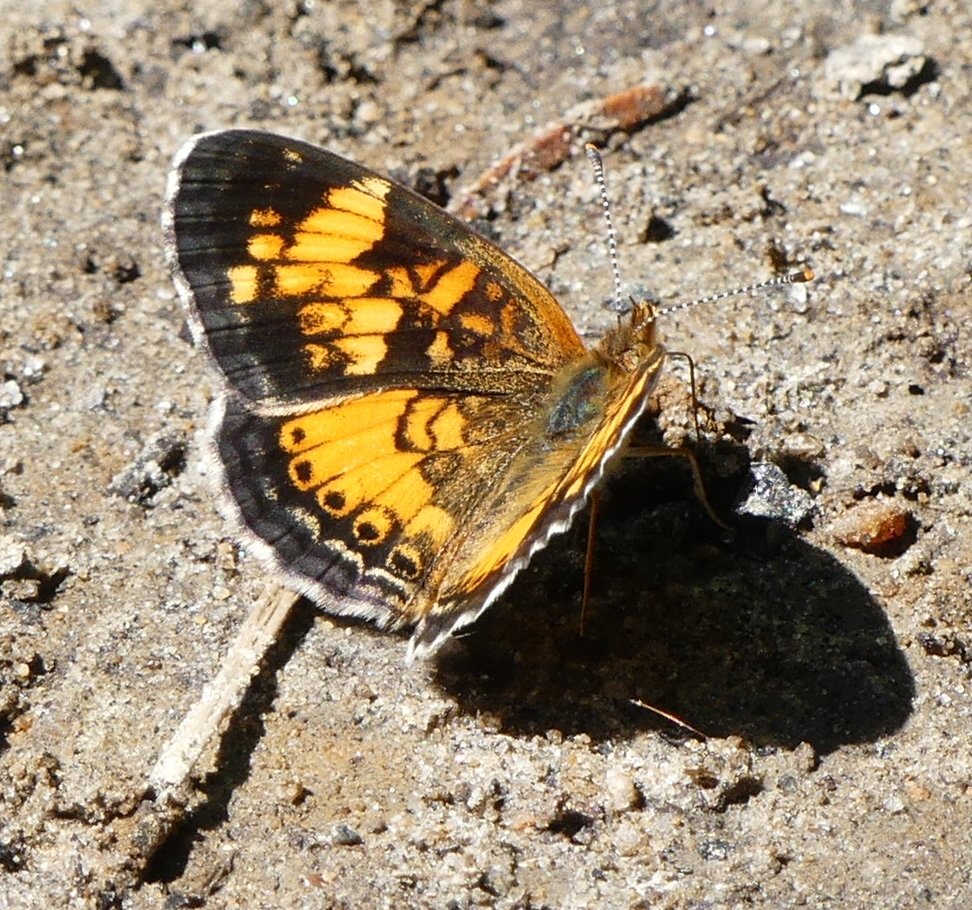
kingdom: Animalia
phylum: Arthropoda
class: Insecta
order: Lepidoptera
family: Nymphalidae
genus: Phyciodes
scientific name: Phyciodes tharos
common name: Northern Crescent
